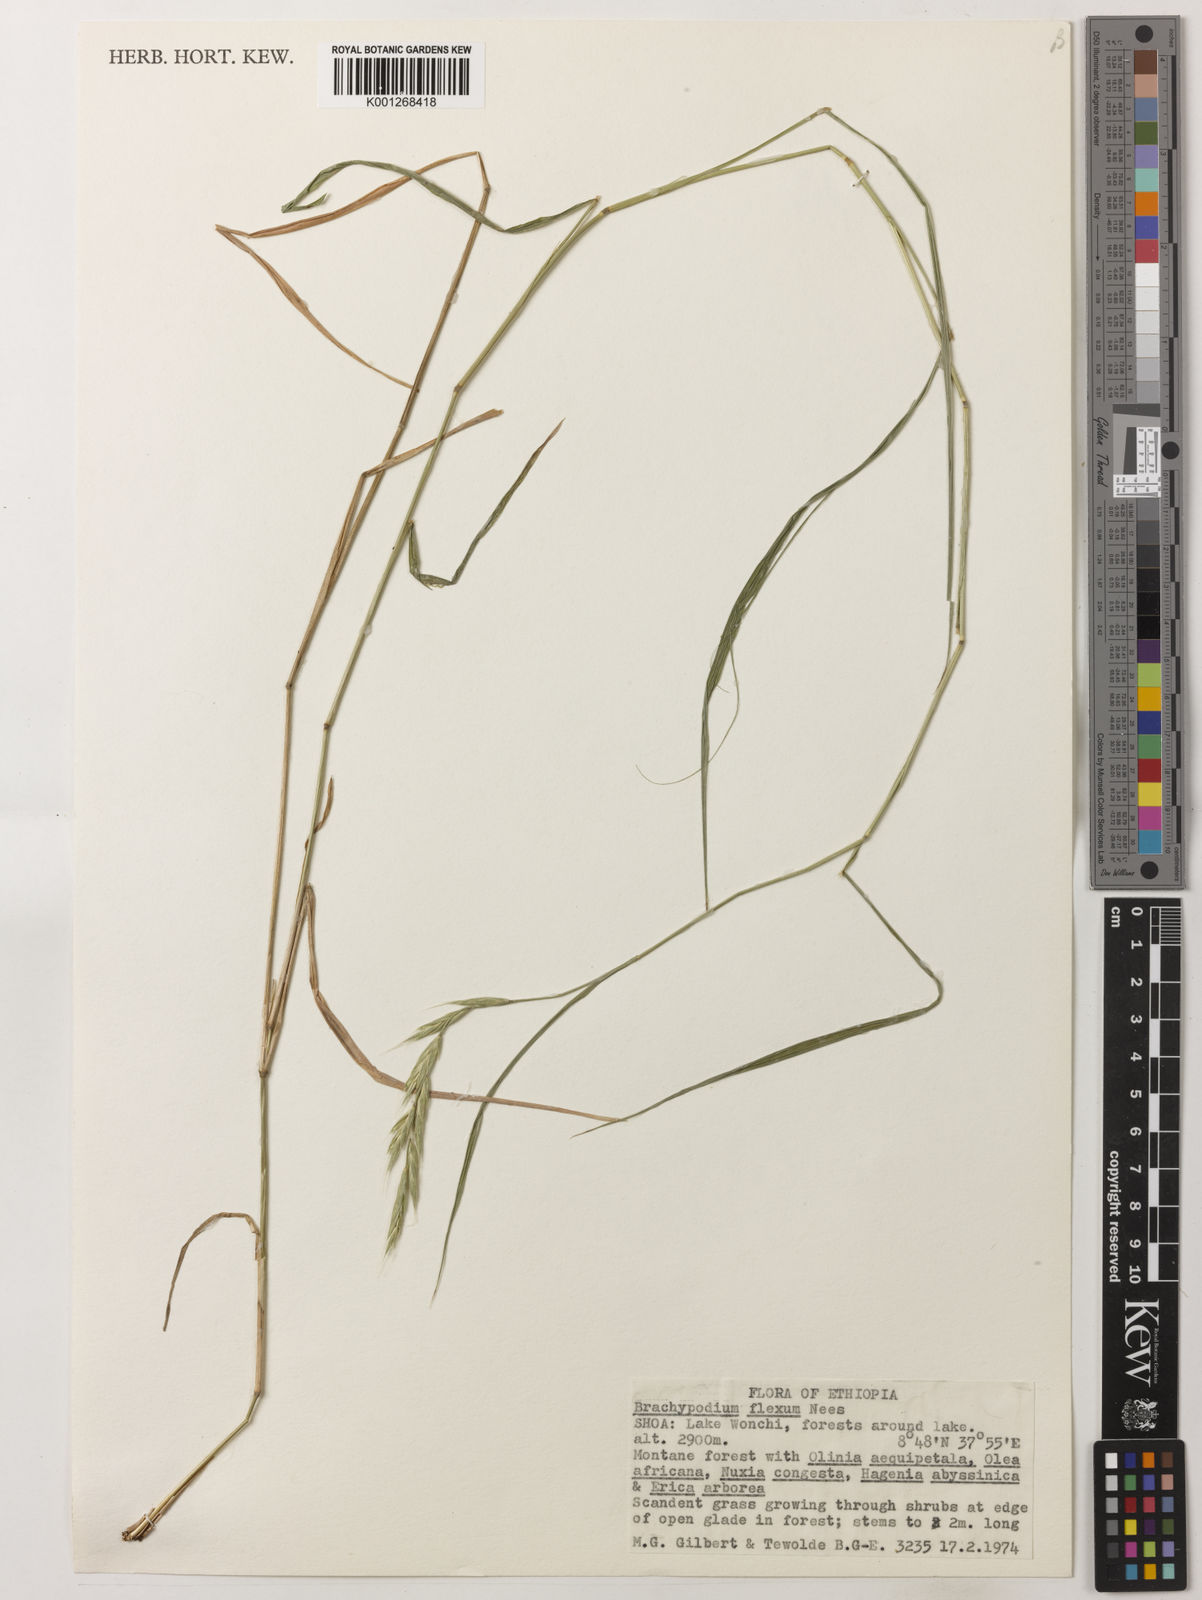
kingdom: Plantae
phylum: Tracheophyta
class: Liliopsida
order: Poales
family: Poaceae
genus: Brachypodium
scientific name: Brachypodium flexum
